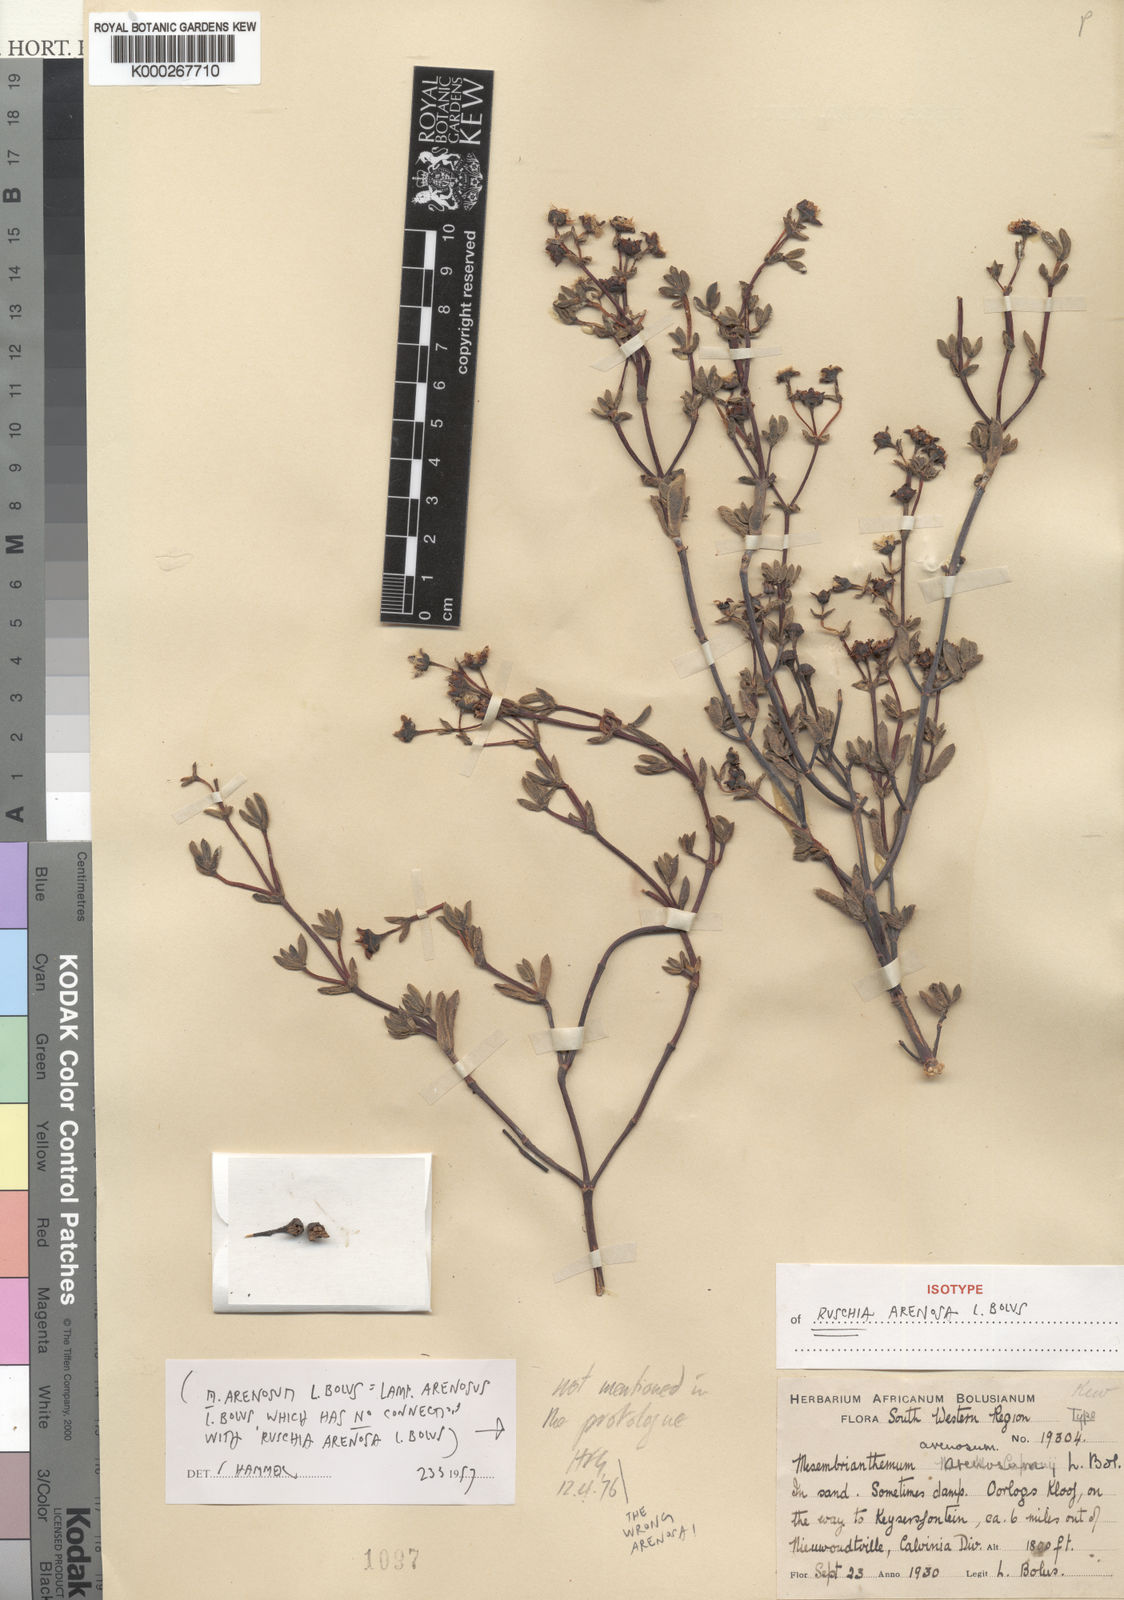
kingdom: Plantae
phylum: Tracheophyta
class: Magnoliopsida
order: Caryophyllales
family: Aizoaceae
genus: Lampranthus
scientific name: Lampranthus arenarius
